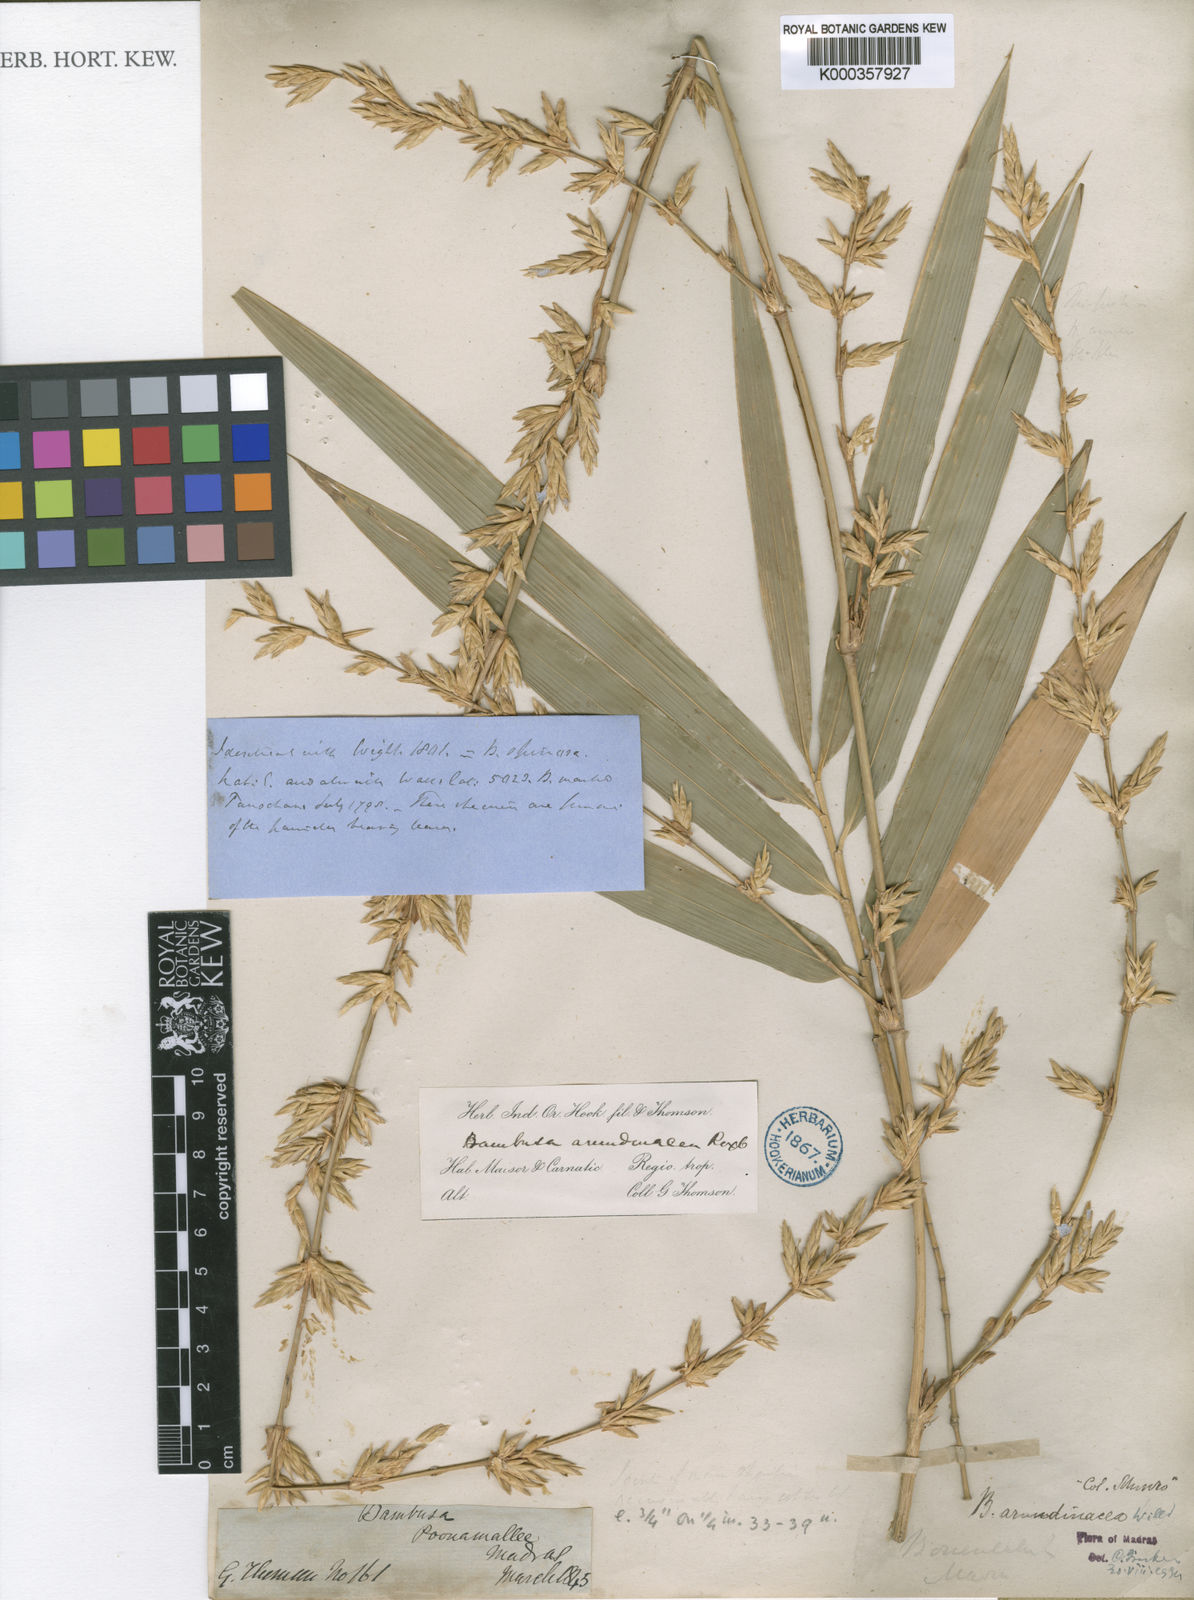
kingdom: Plantae
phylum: Tracheophyta
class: Liliopsida
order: Poales
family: Poaceae
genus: Bambusa
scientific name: Bambusa bambos
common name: Indian thorny bamboo
